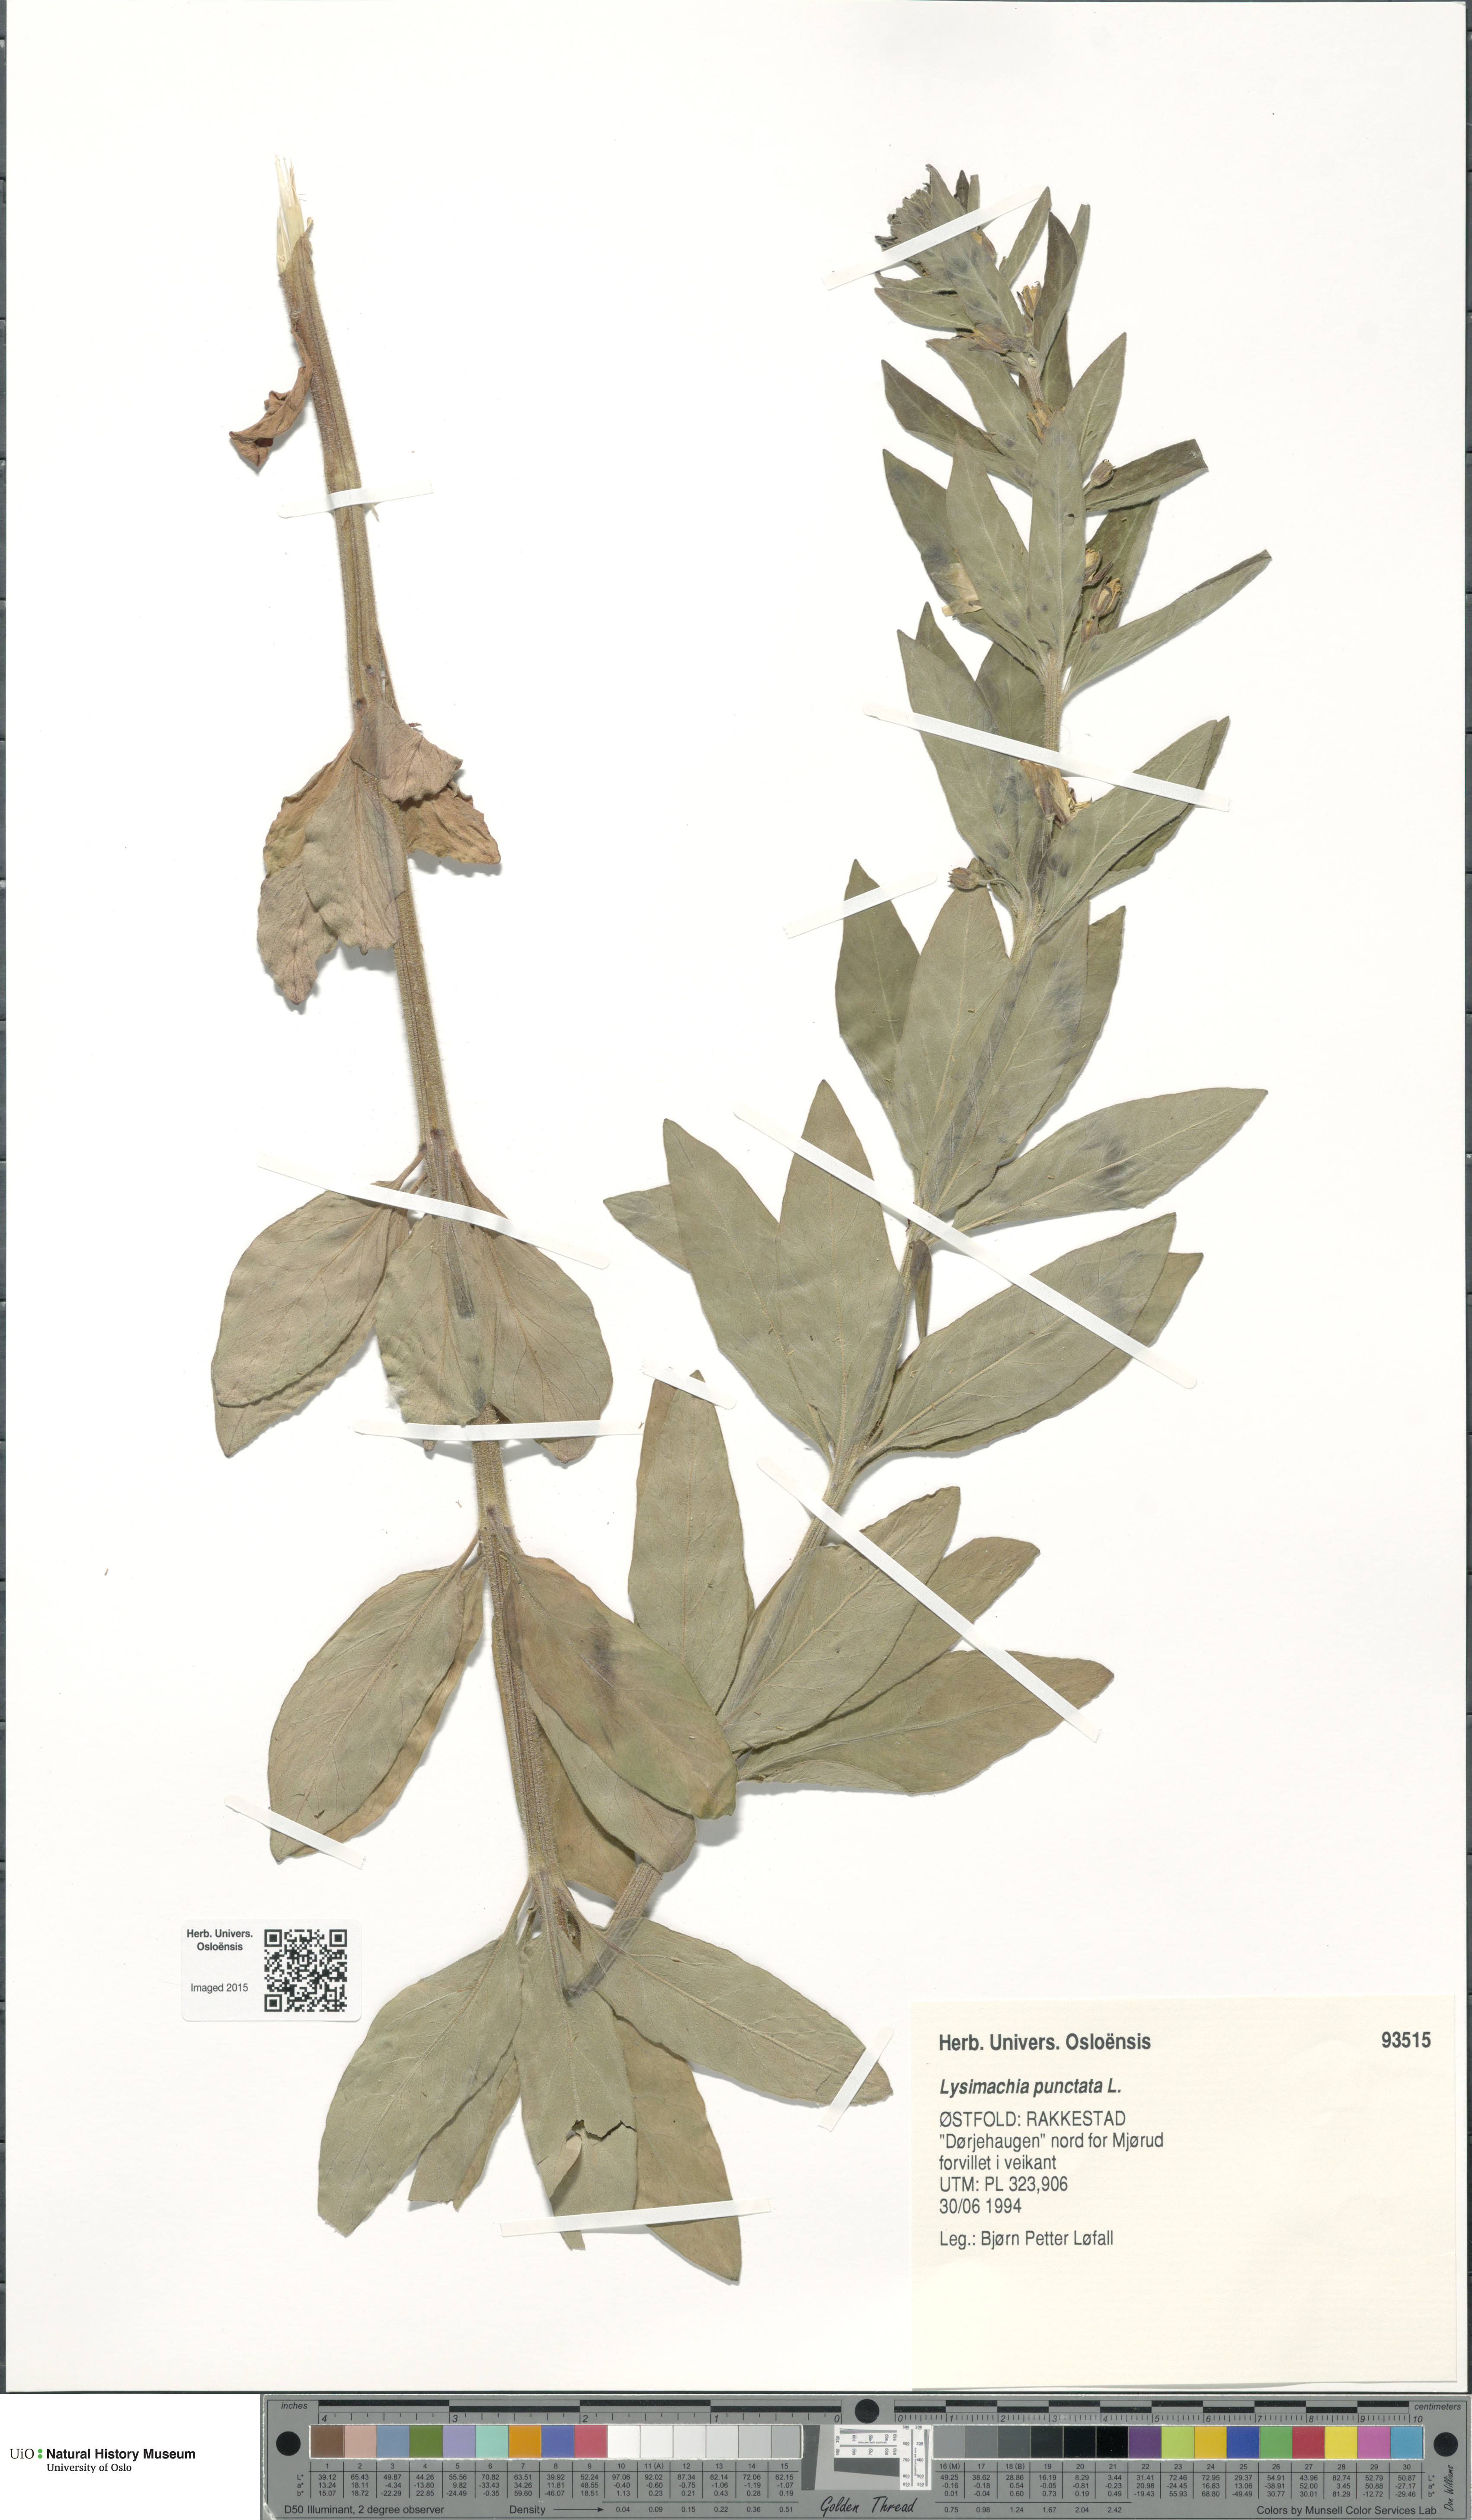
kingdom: Plantae
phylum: Tracheophyta
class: Magnoliopsida
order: Ericales
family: Primulaceae
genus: Lysimachia
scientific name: Lysimachia punctata
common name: Dotted loosestrife
